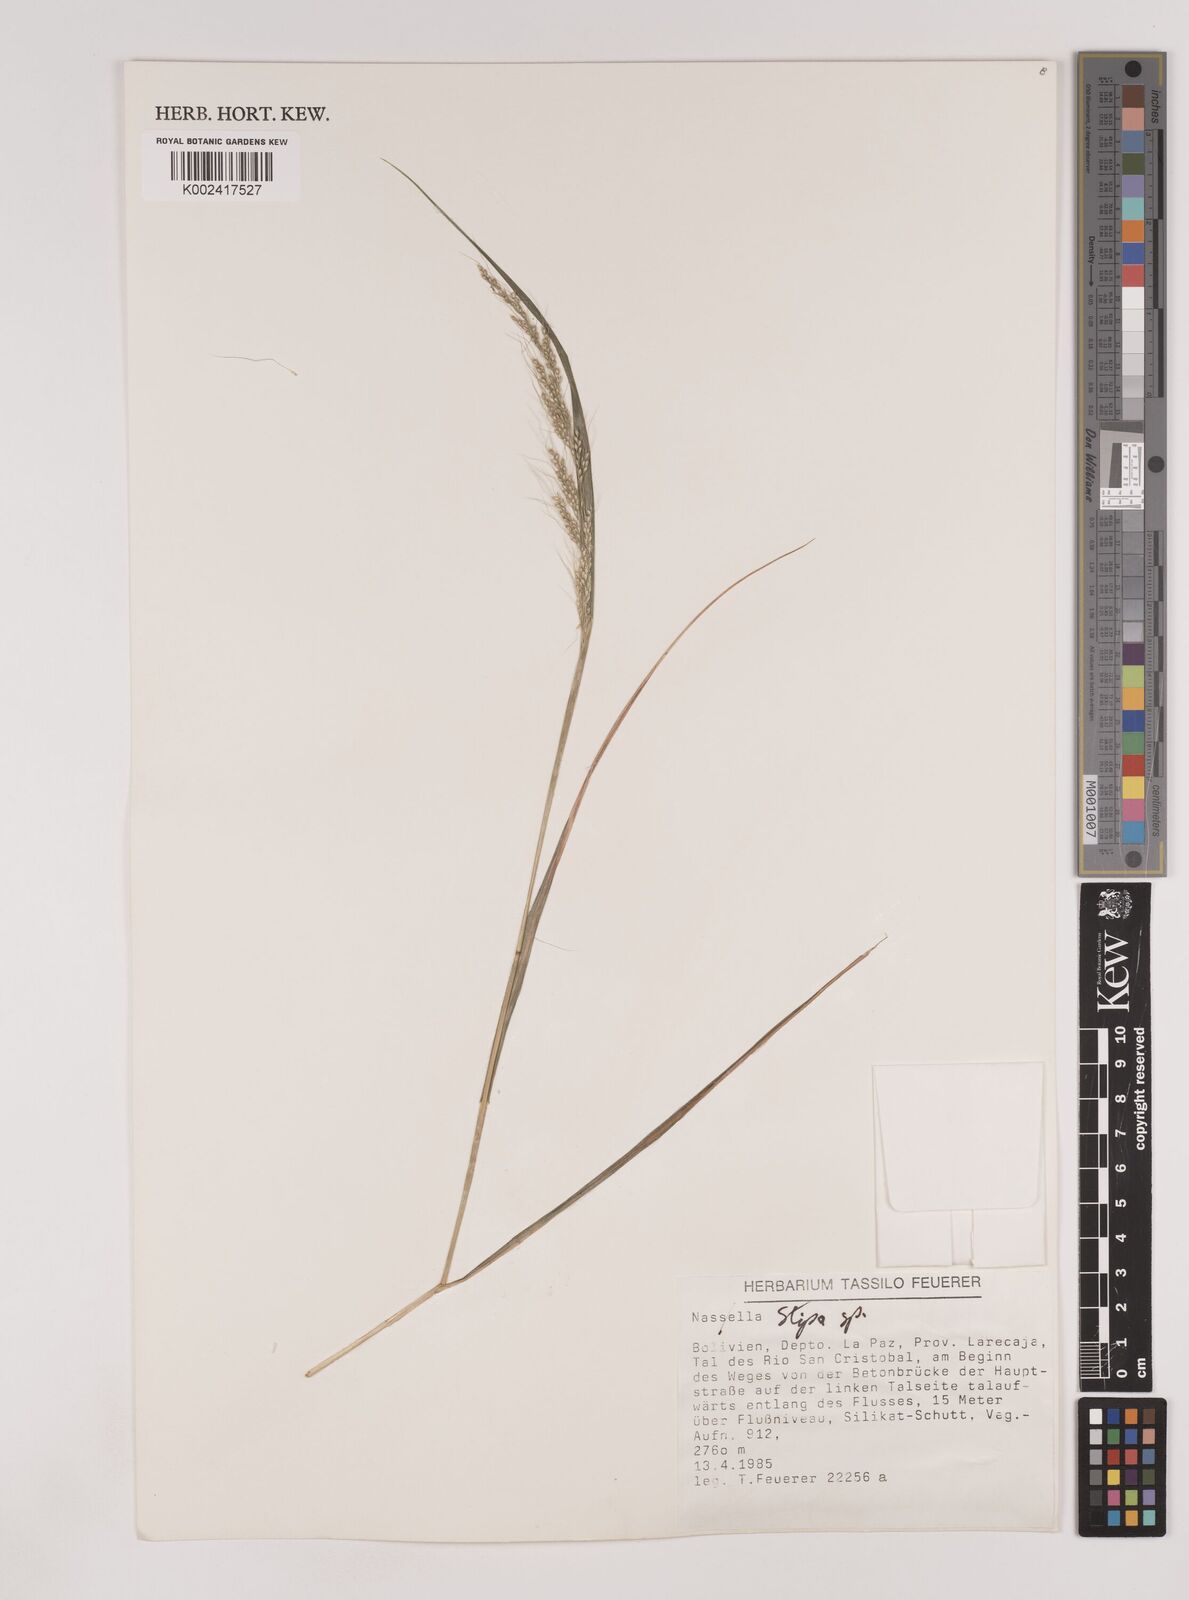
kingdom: Plantae
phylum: Tracheophyta
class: Liliopsida
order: Poales
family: Poaceae
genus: Nassella
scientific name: Nassella pubiflora
